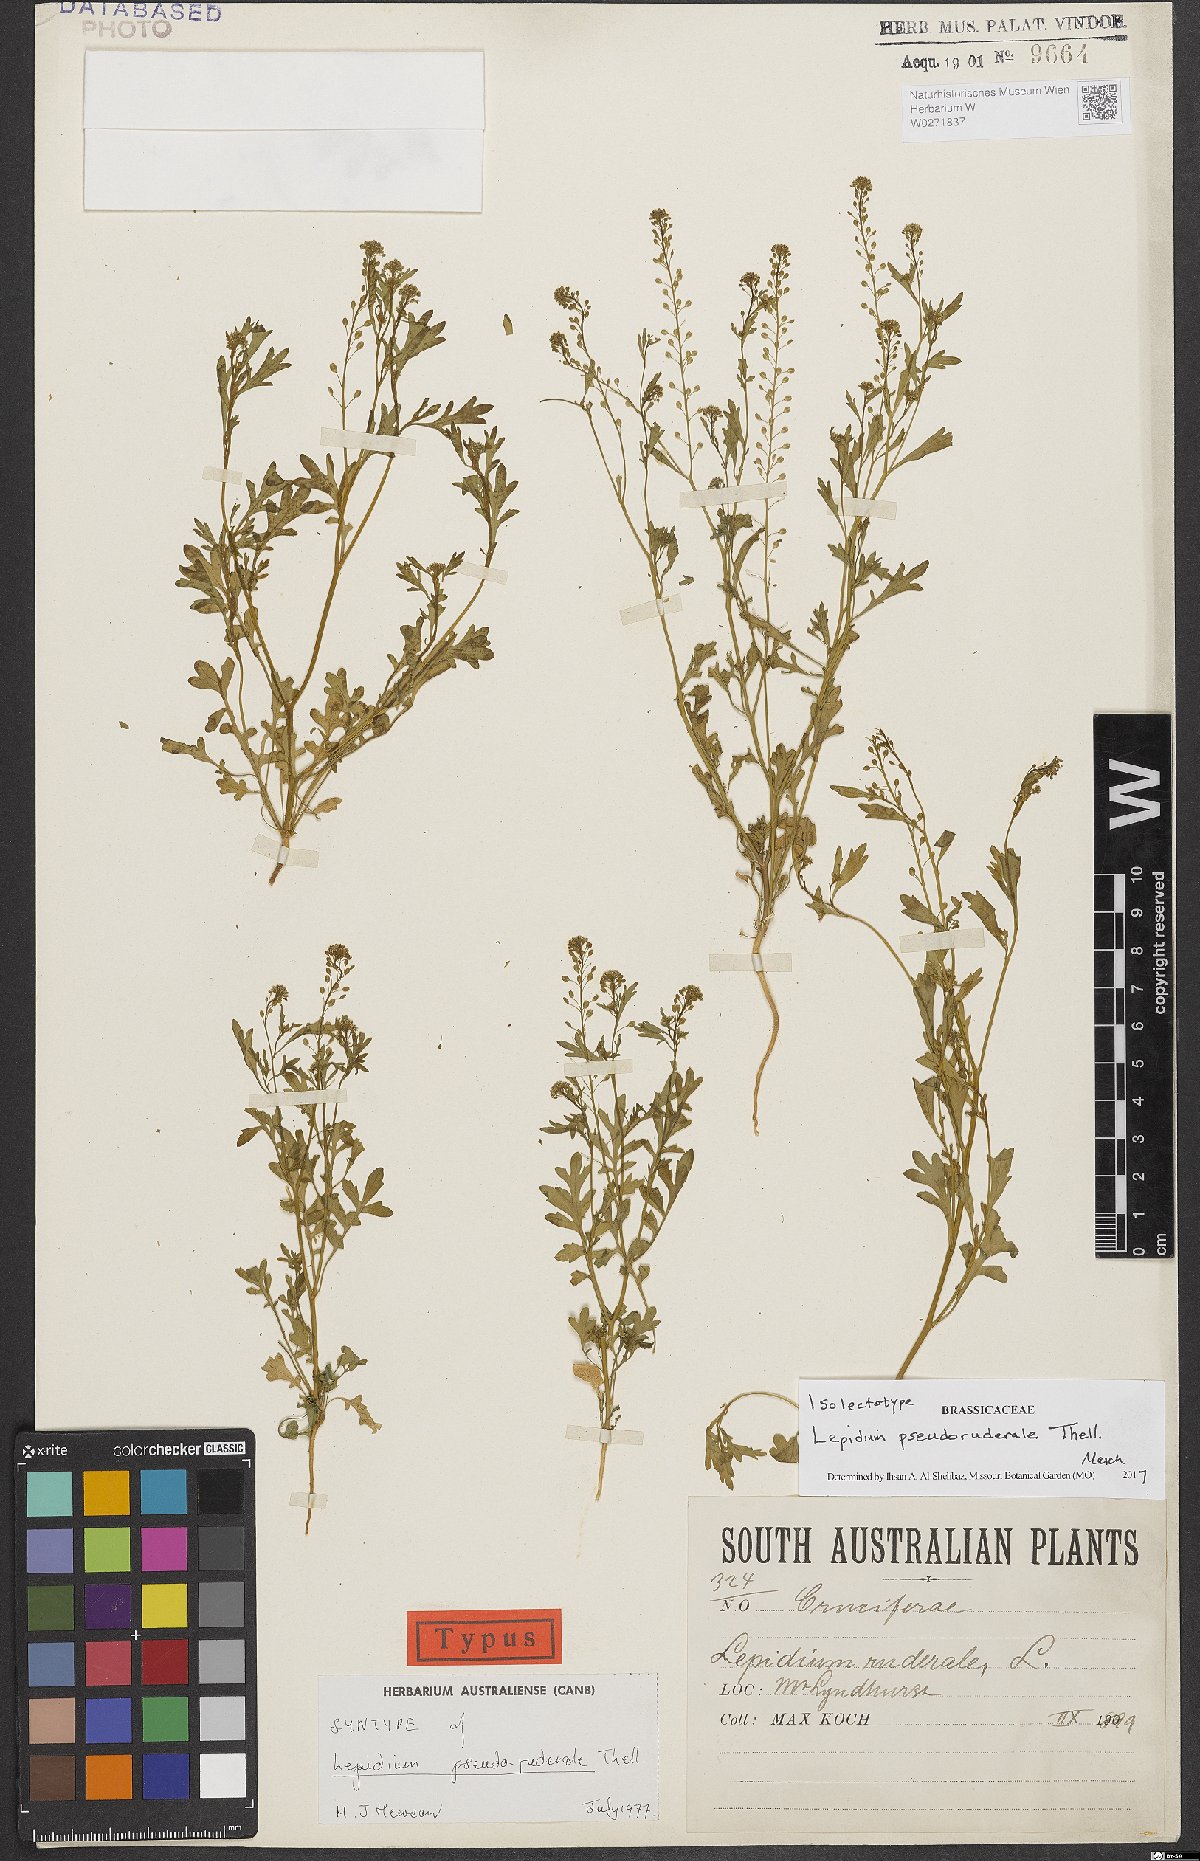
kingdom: Plantae
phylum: Tracheophyta
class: Magnoliopsida
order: Brassicales
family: Brassicaceae
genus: Lepidium
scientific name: Lepidium pseudoruderale
